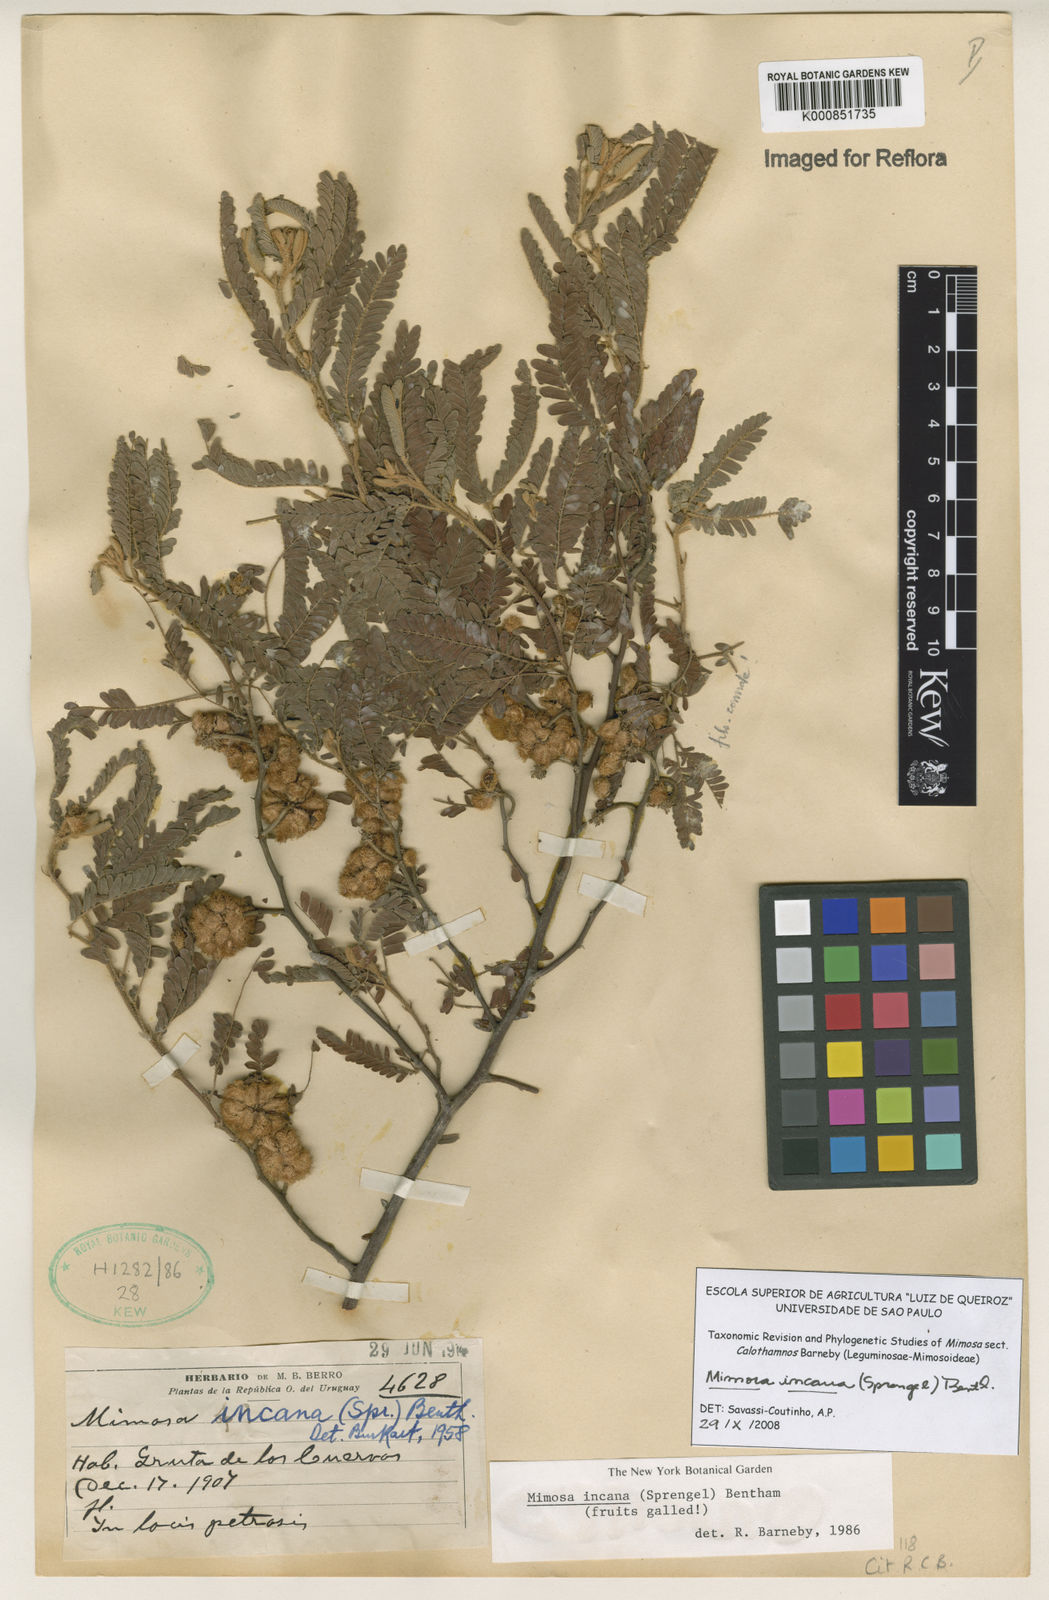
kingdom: Plantae
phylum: Tracheophyta
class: Magnoliopsida
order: Fabales
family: Fabaceae
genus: Mimosa
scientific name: Mimosa incana
